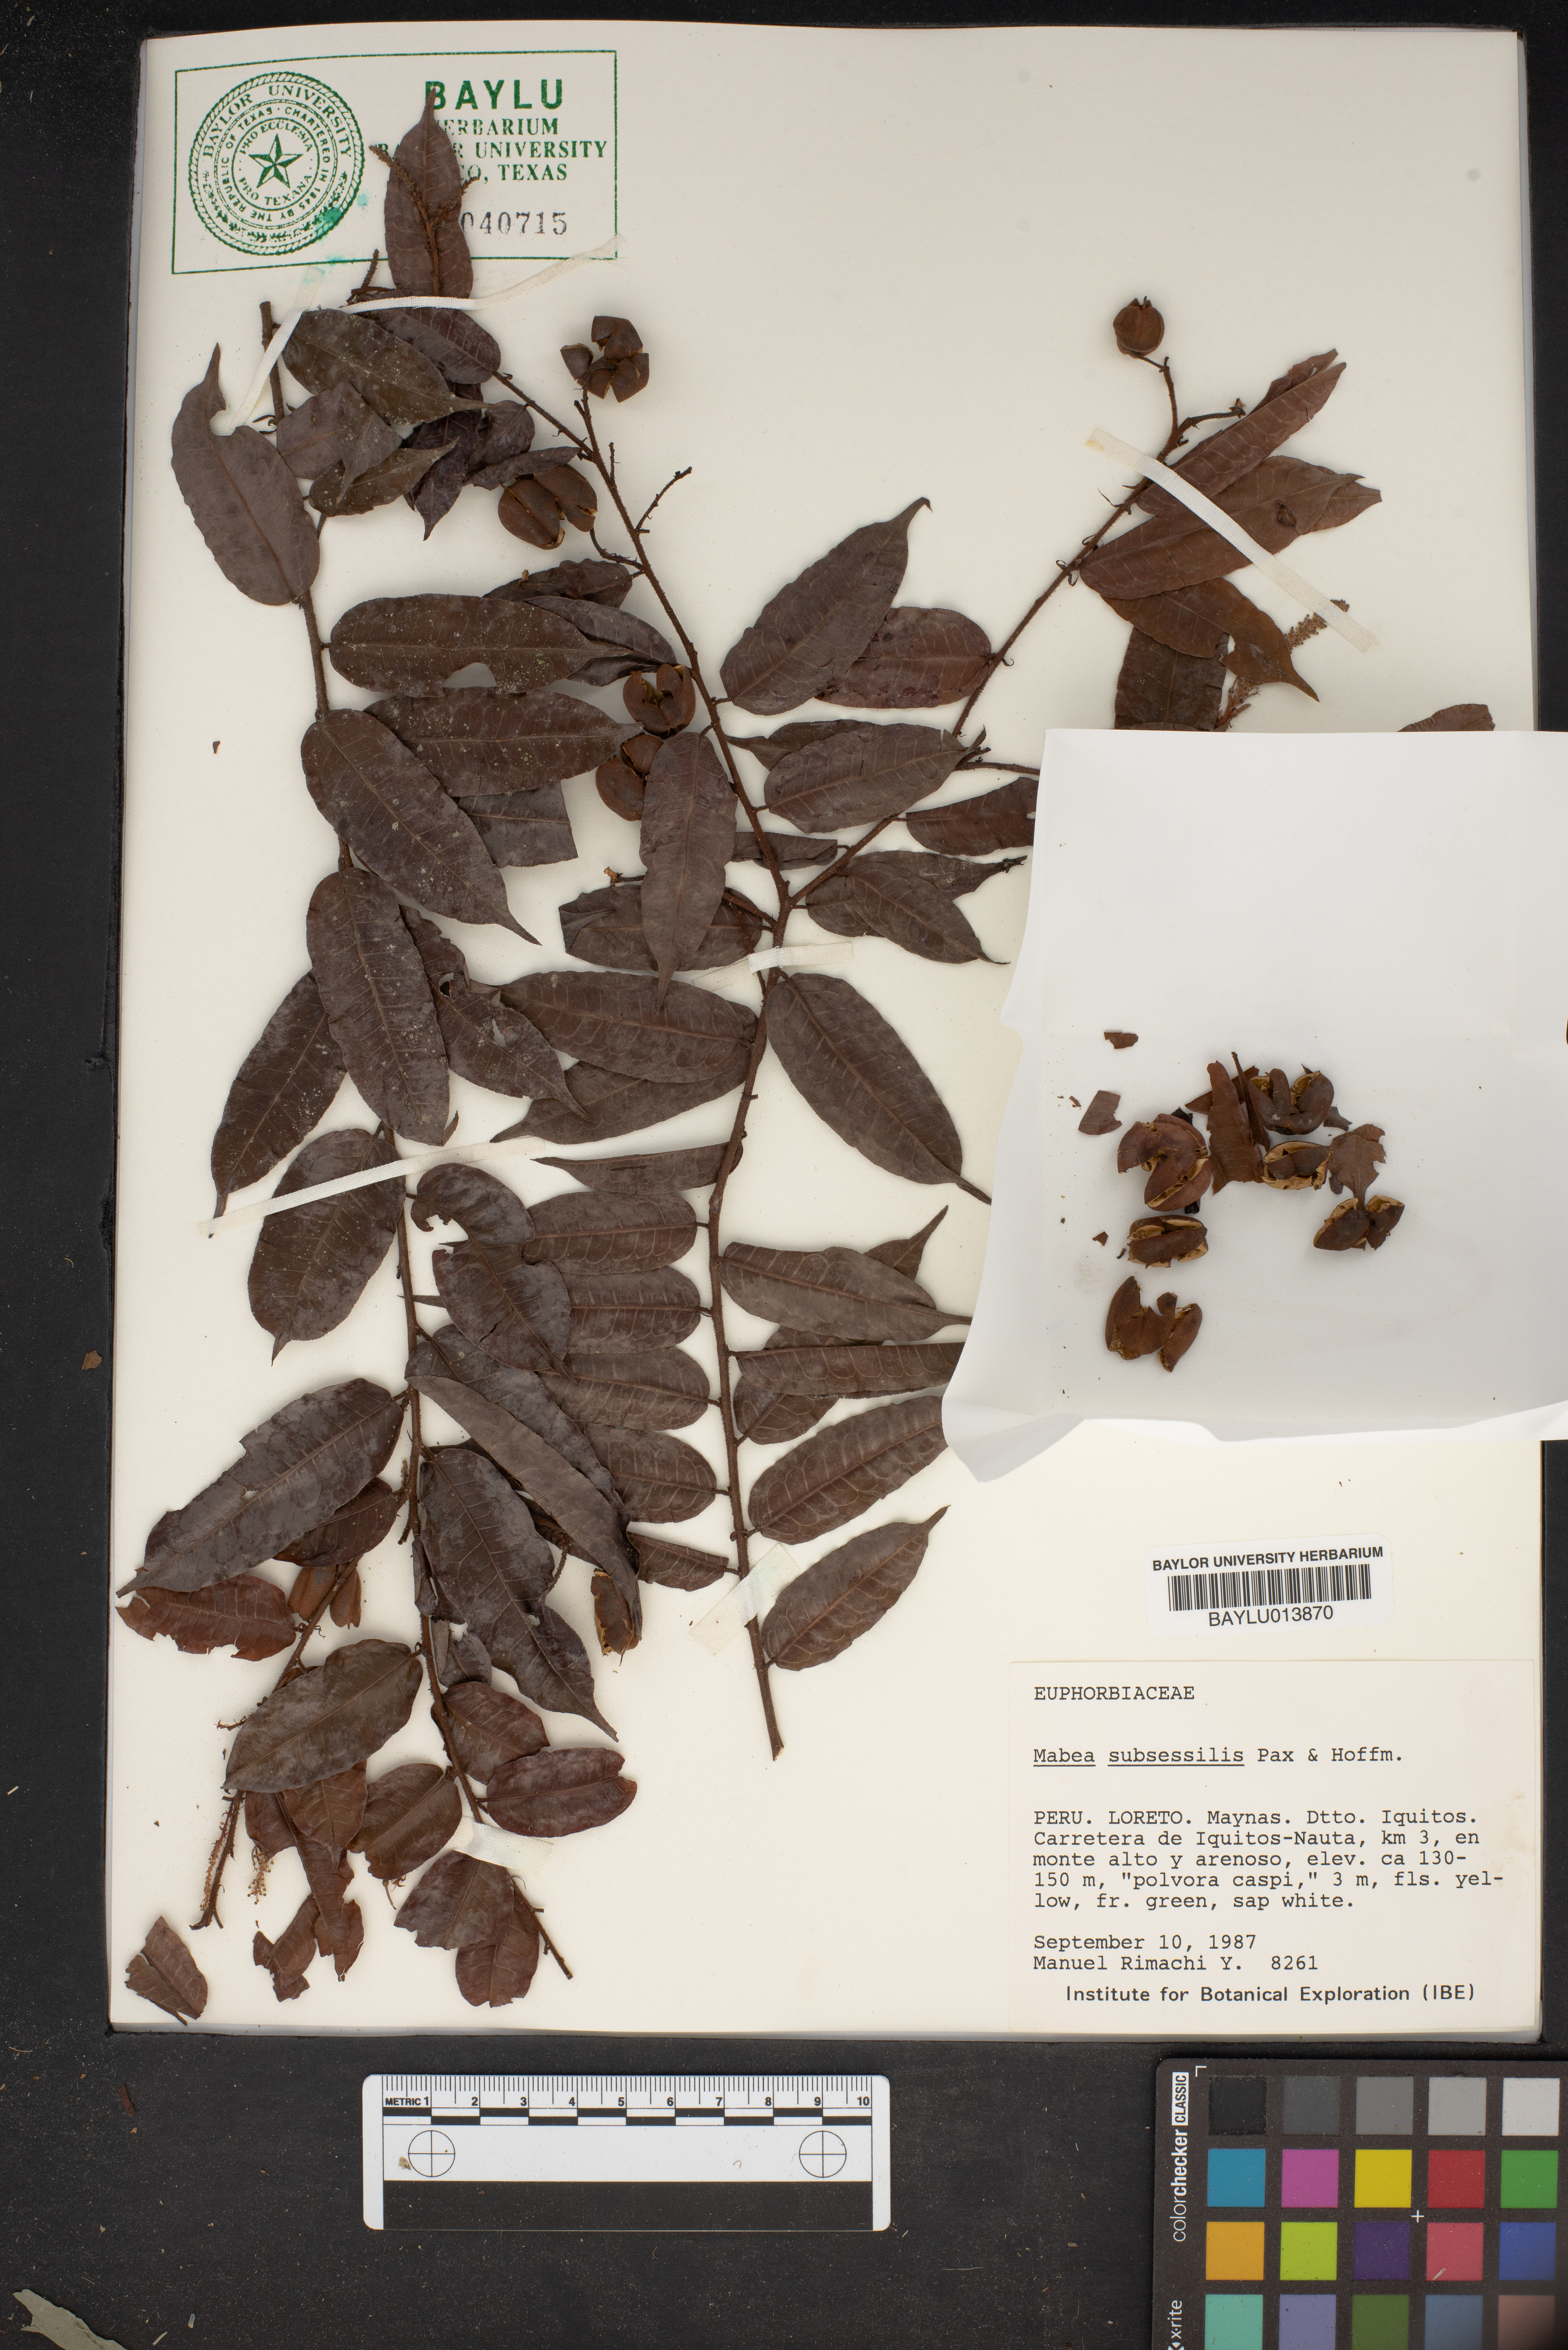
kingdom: Plantae
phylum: Tracheophyta
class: Magnoliopsida
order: Malpighiales
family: Euphorbiaceae
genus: Mabea
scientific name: Mabea subsessilis
